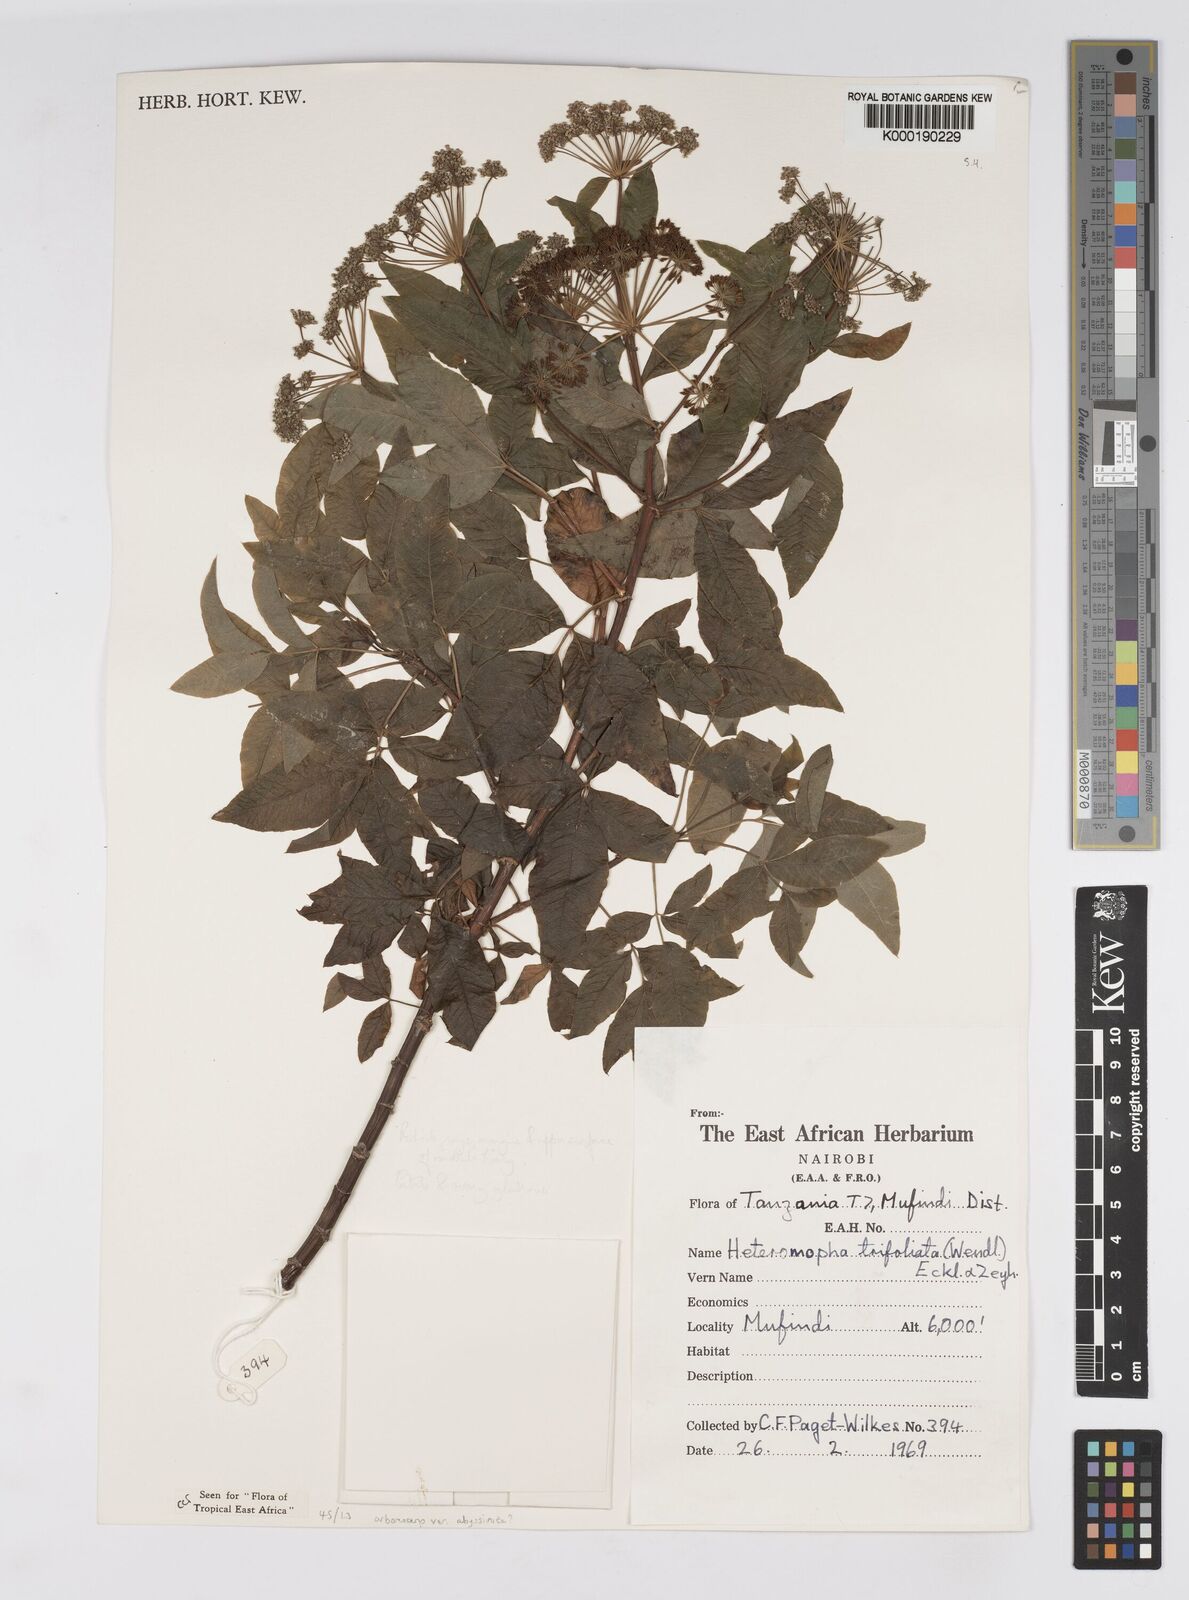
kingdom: Plantae
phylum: Tracheophyta
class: Magnoliopsida
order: Apiales
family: Apiaceae
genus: Heteromorpha
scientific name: Heteromorpha arborescens
